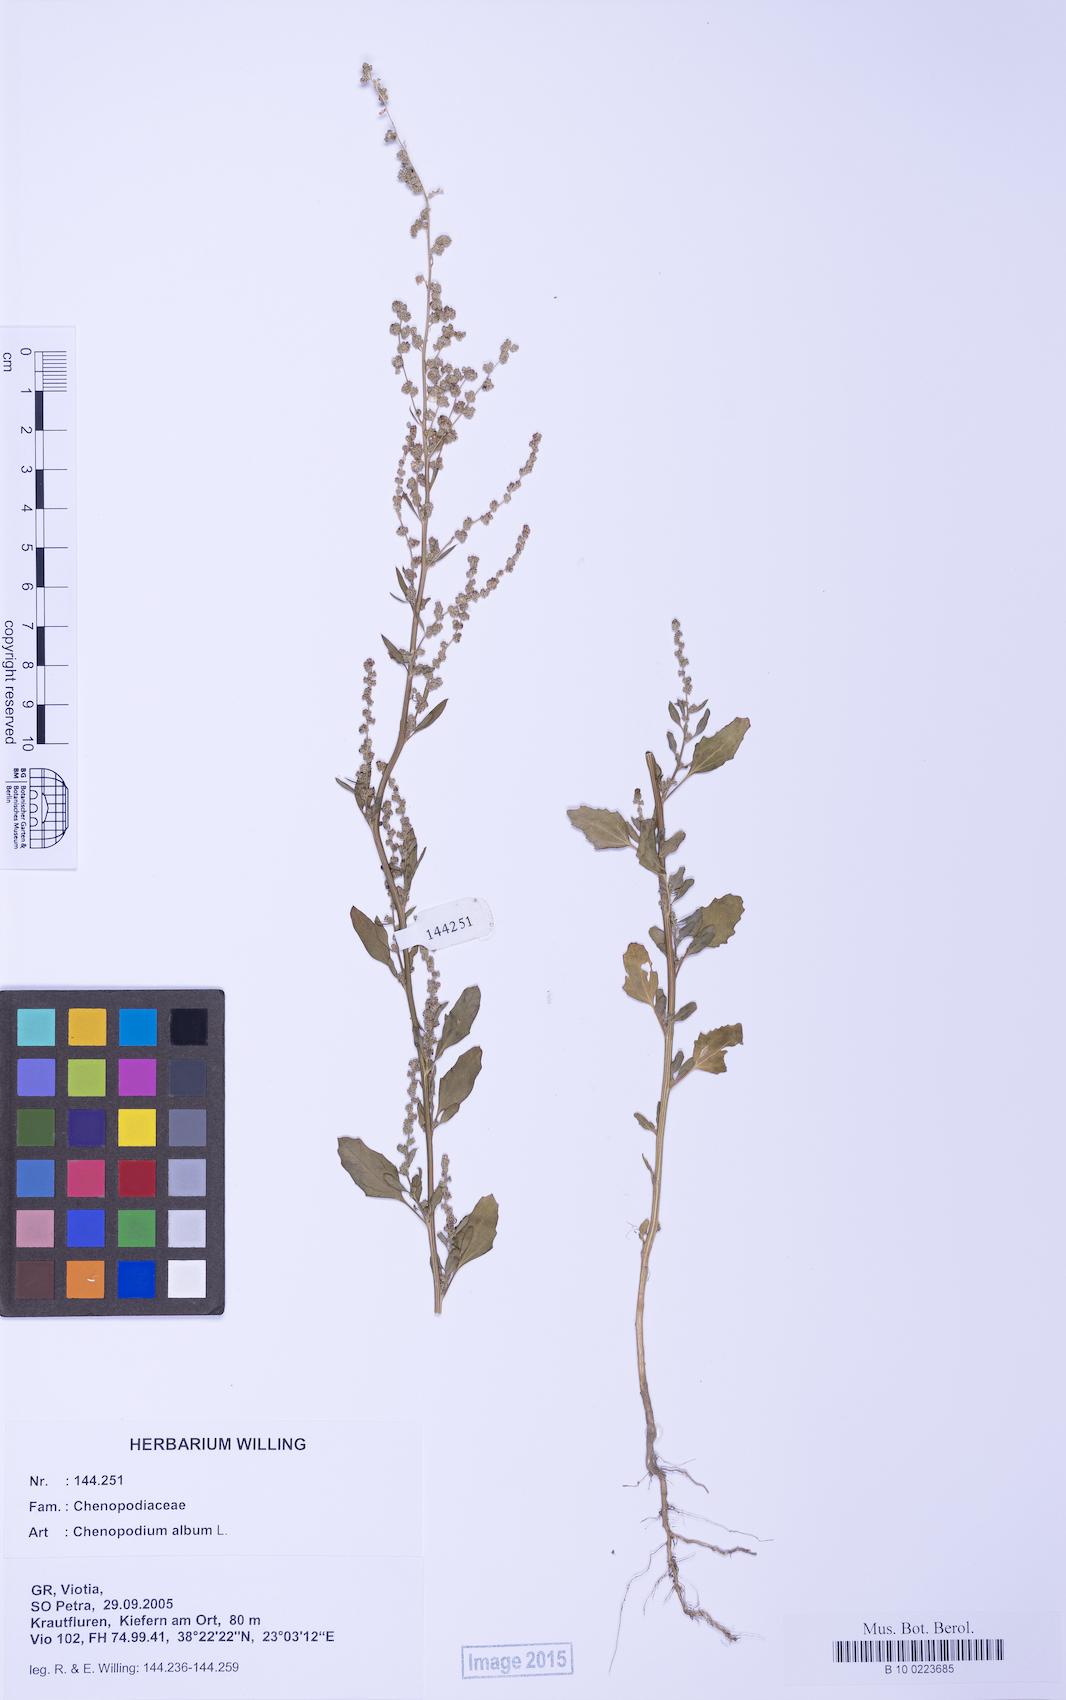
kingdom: Plantae
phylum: Tracheophyta
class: Magnoliopsida
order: Caryophyllales
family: Amaranthaceae
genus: Chenopodium
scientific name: Chenopodium album
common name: Fat-hen
